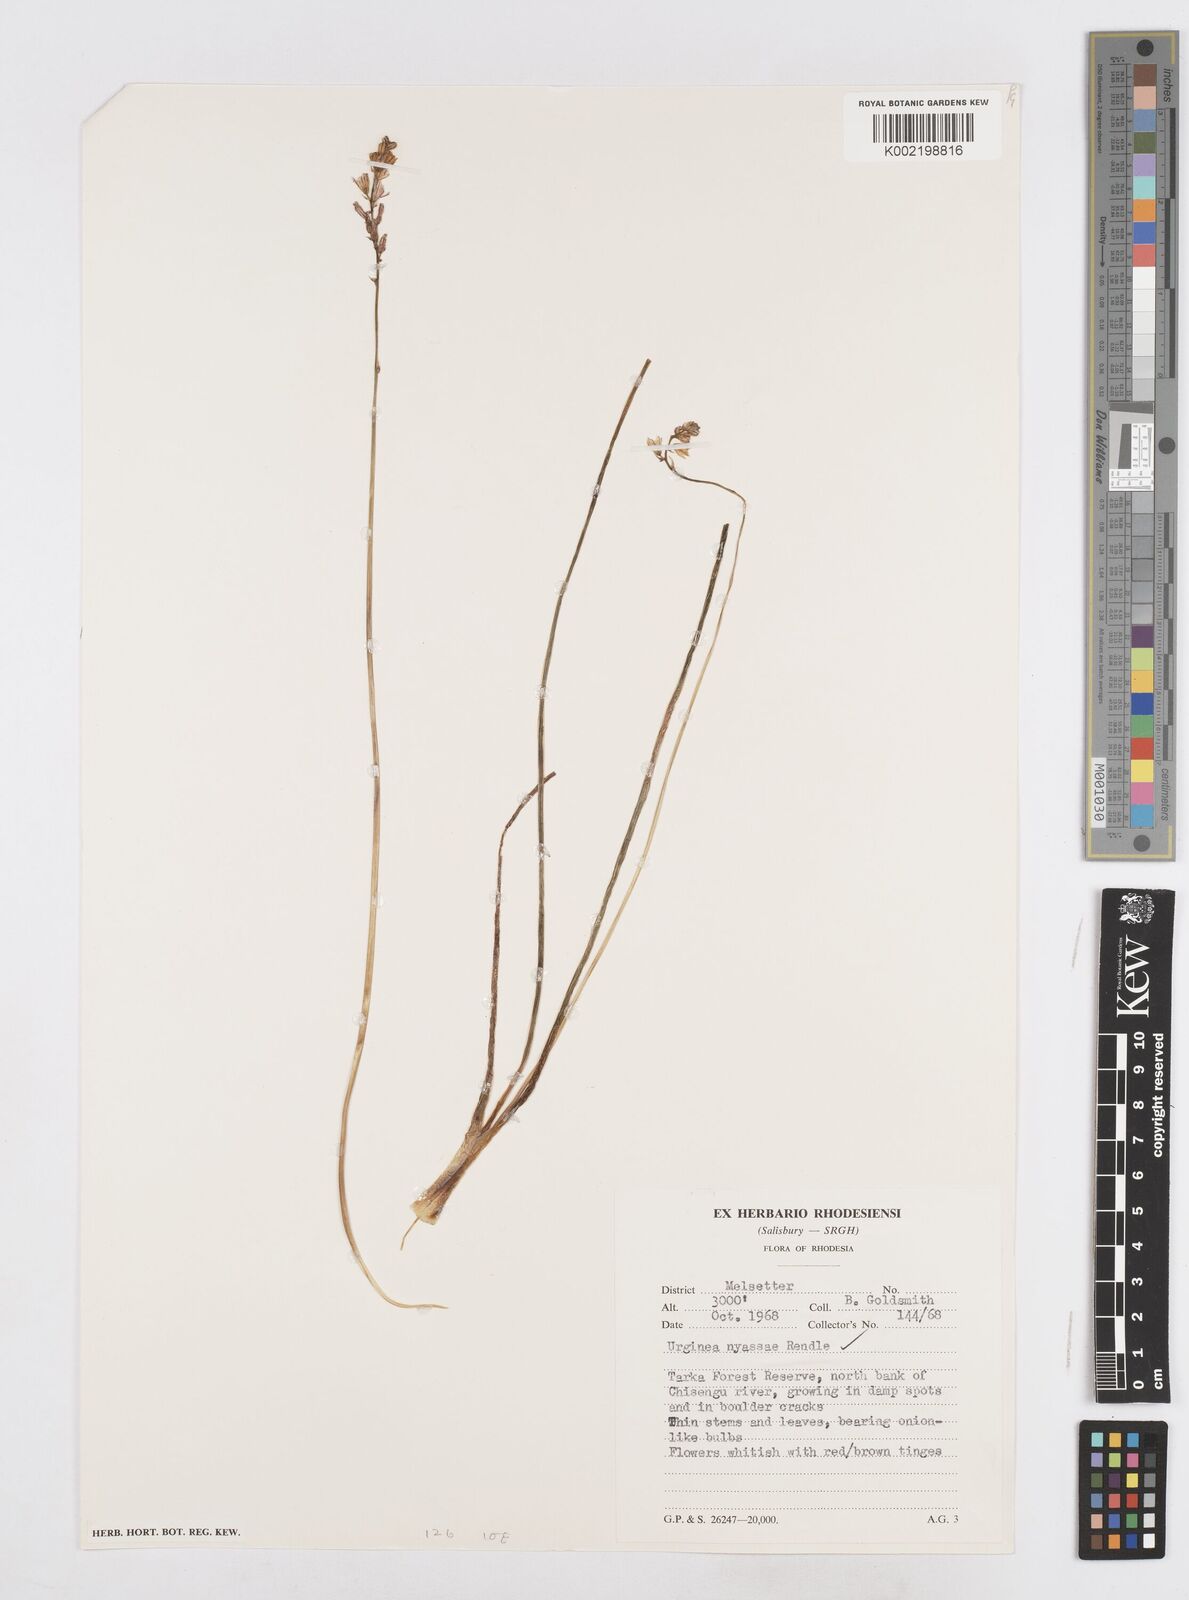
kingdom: Plantae
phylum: Tracheophyta
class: Liliopsida
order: Asparagales
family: Asparagaceae
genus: Drimia
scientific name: Drimia
